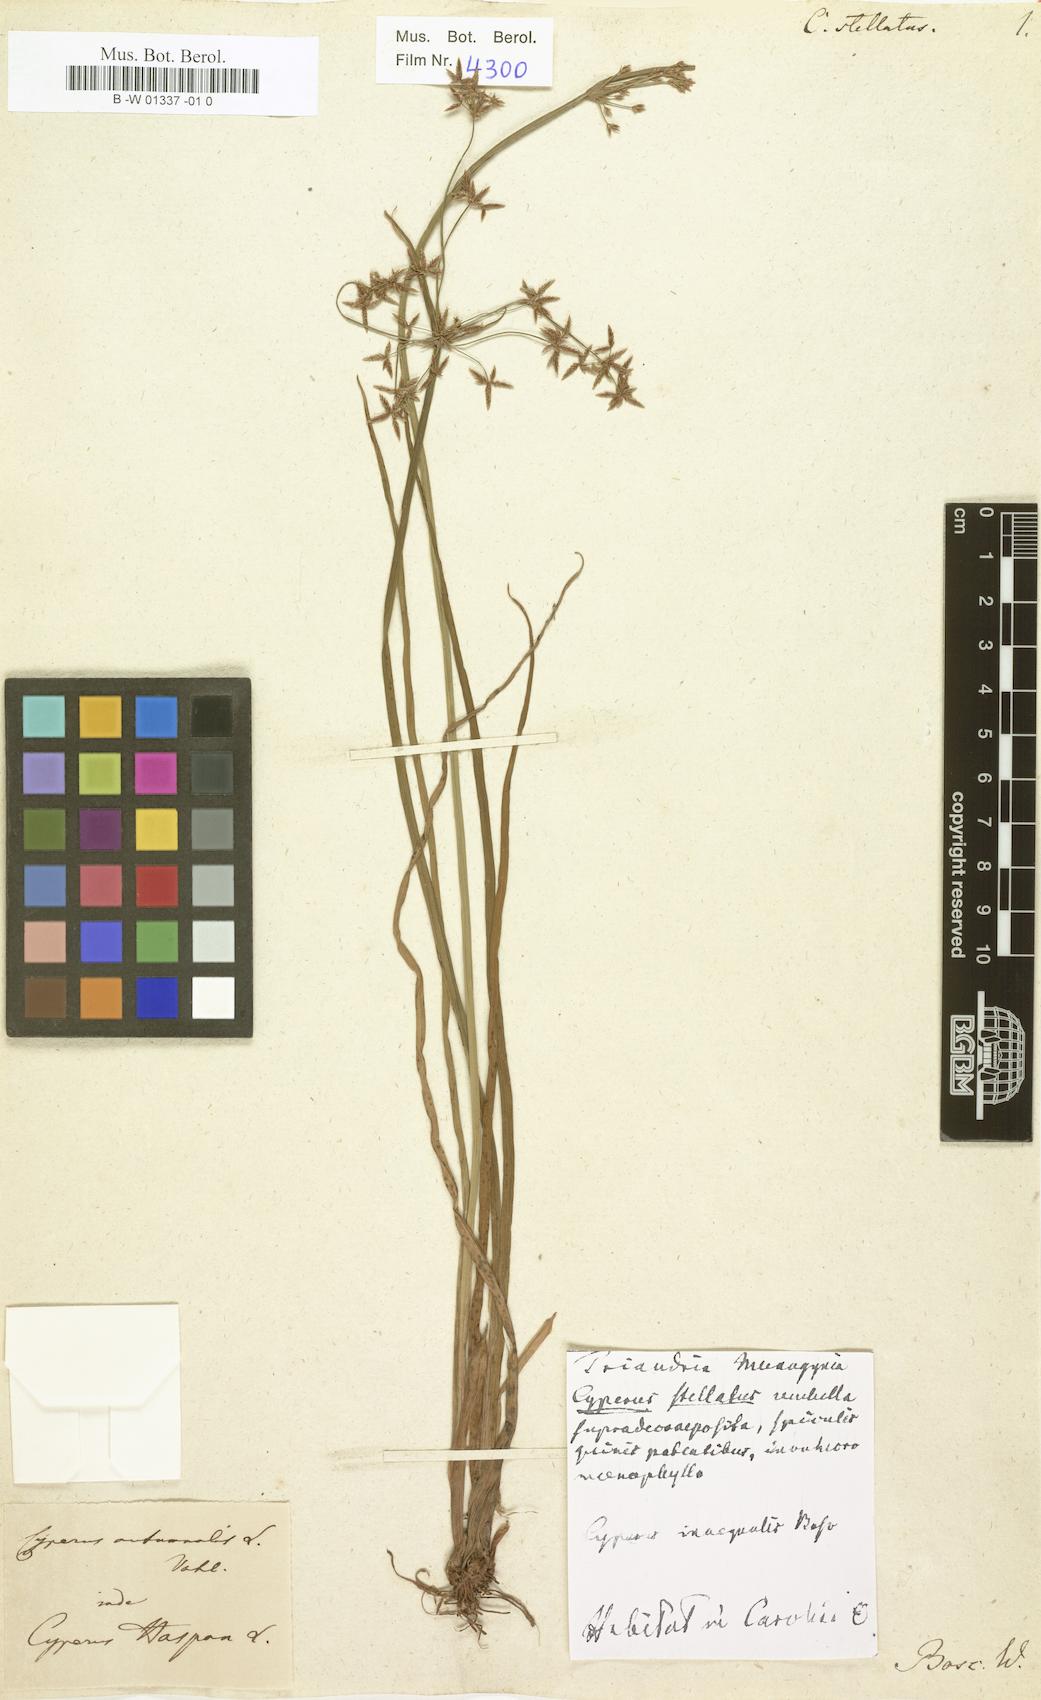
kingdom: Plantae
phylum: Tracheophyta
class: Liliopsida
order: Poales
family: Cyperaceae
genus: Cyperus
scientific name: Cyperus odoratus
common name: Fragrant flatsedge
